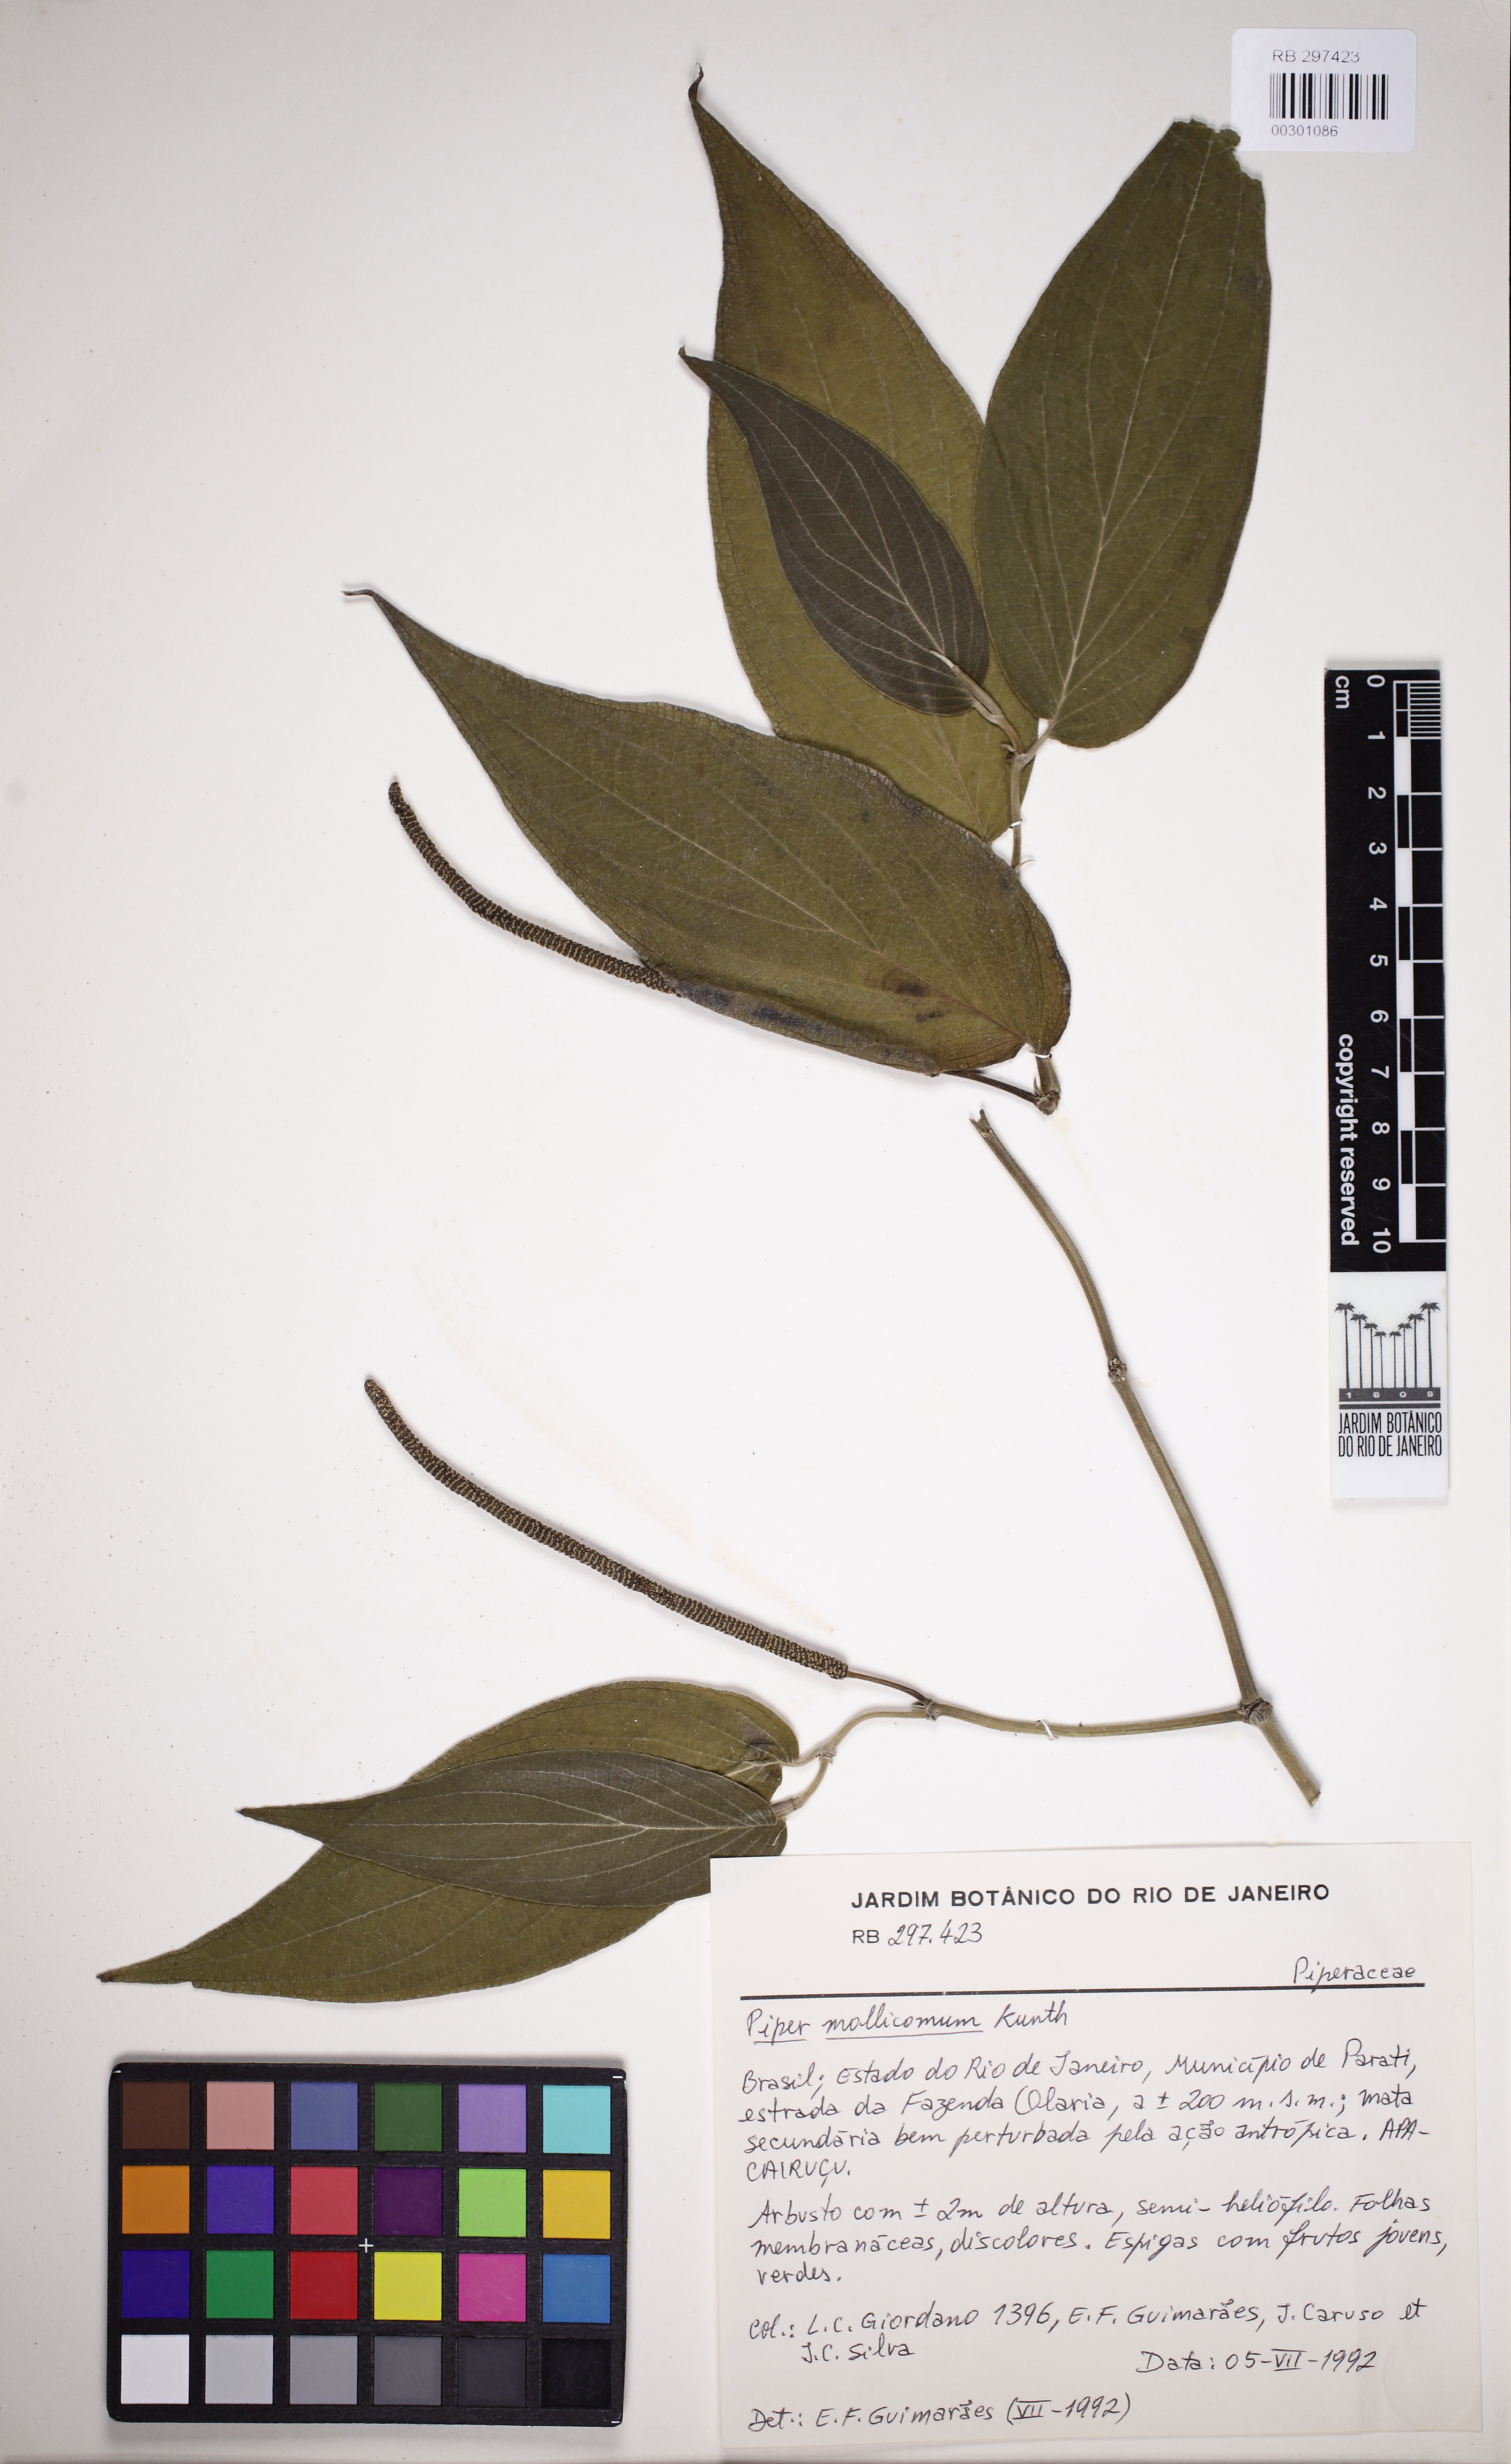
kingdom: Plantae
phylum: Tracheophyta
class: Magnoliopsida
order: Piperales
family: Piperaceae
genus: Piper
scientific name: Piper mollicomum
